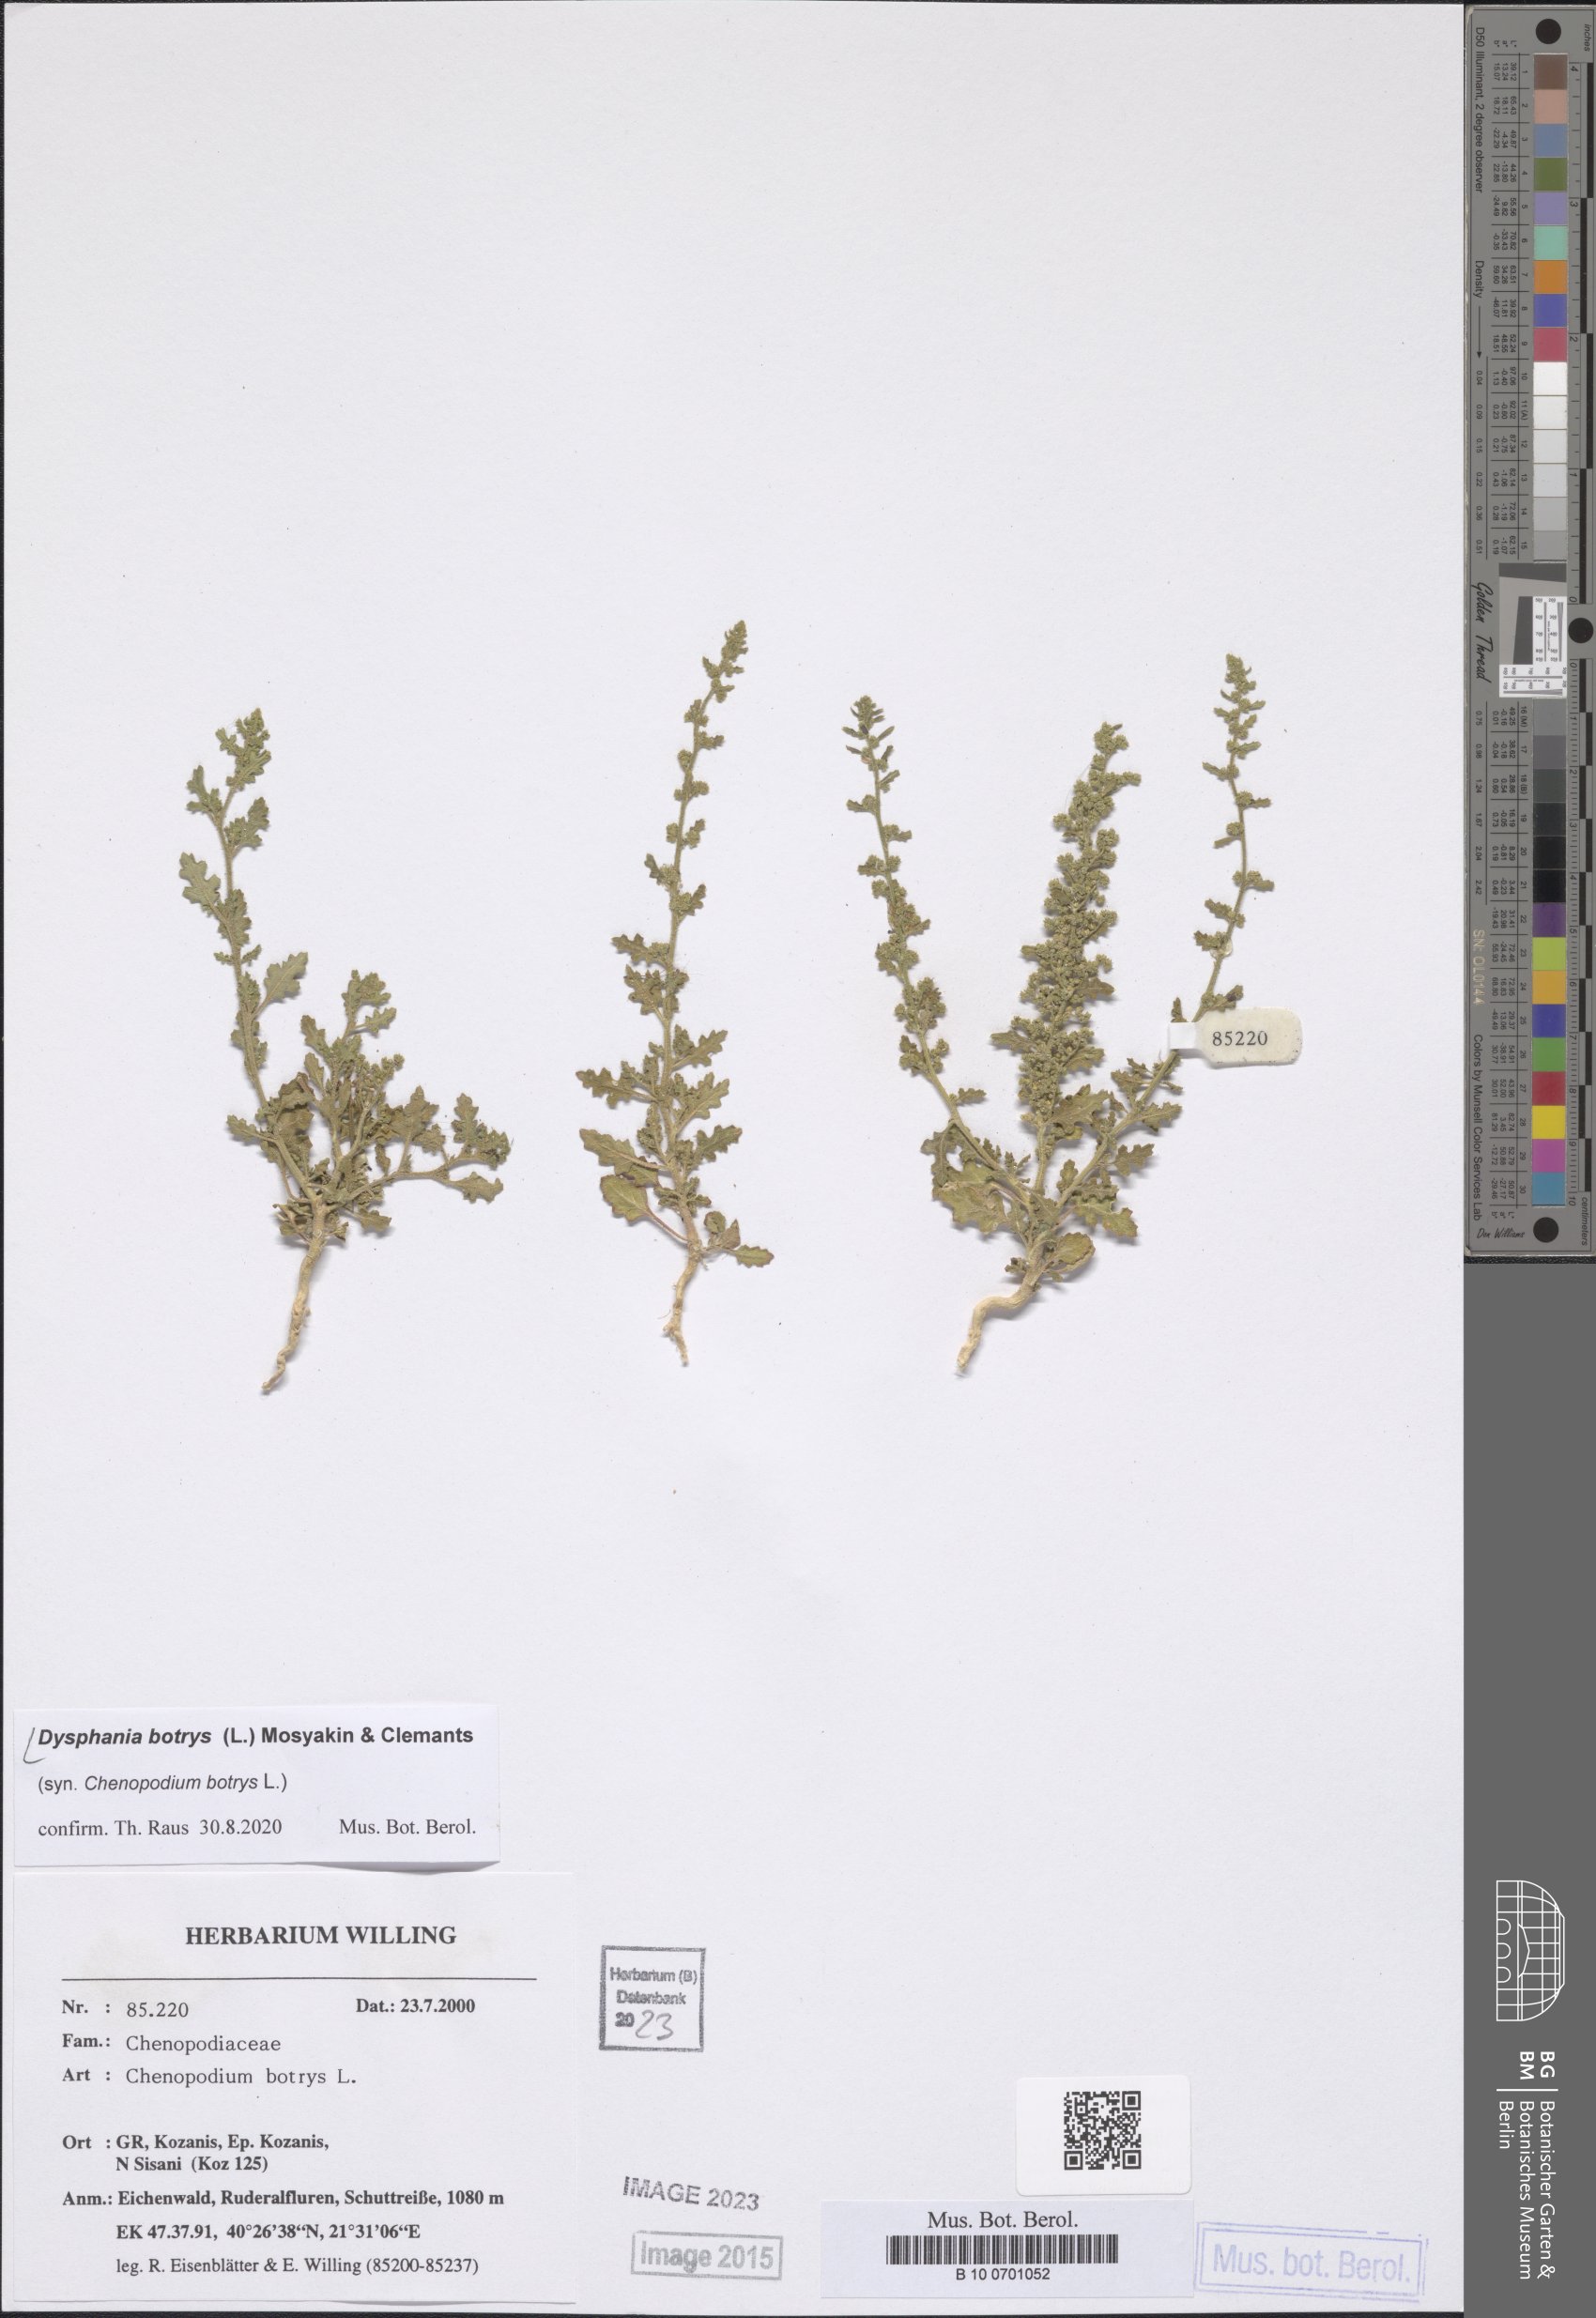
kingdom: Plantae
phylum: Tracheophyta
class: Magnoliopsida
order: Caryophyllales
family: Amaranthaceae
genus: Dysphania
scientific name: Dysphania botrys
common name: Feather-geranium
